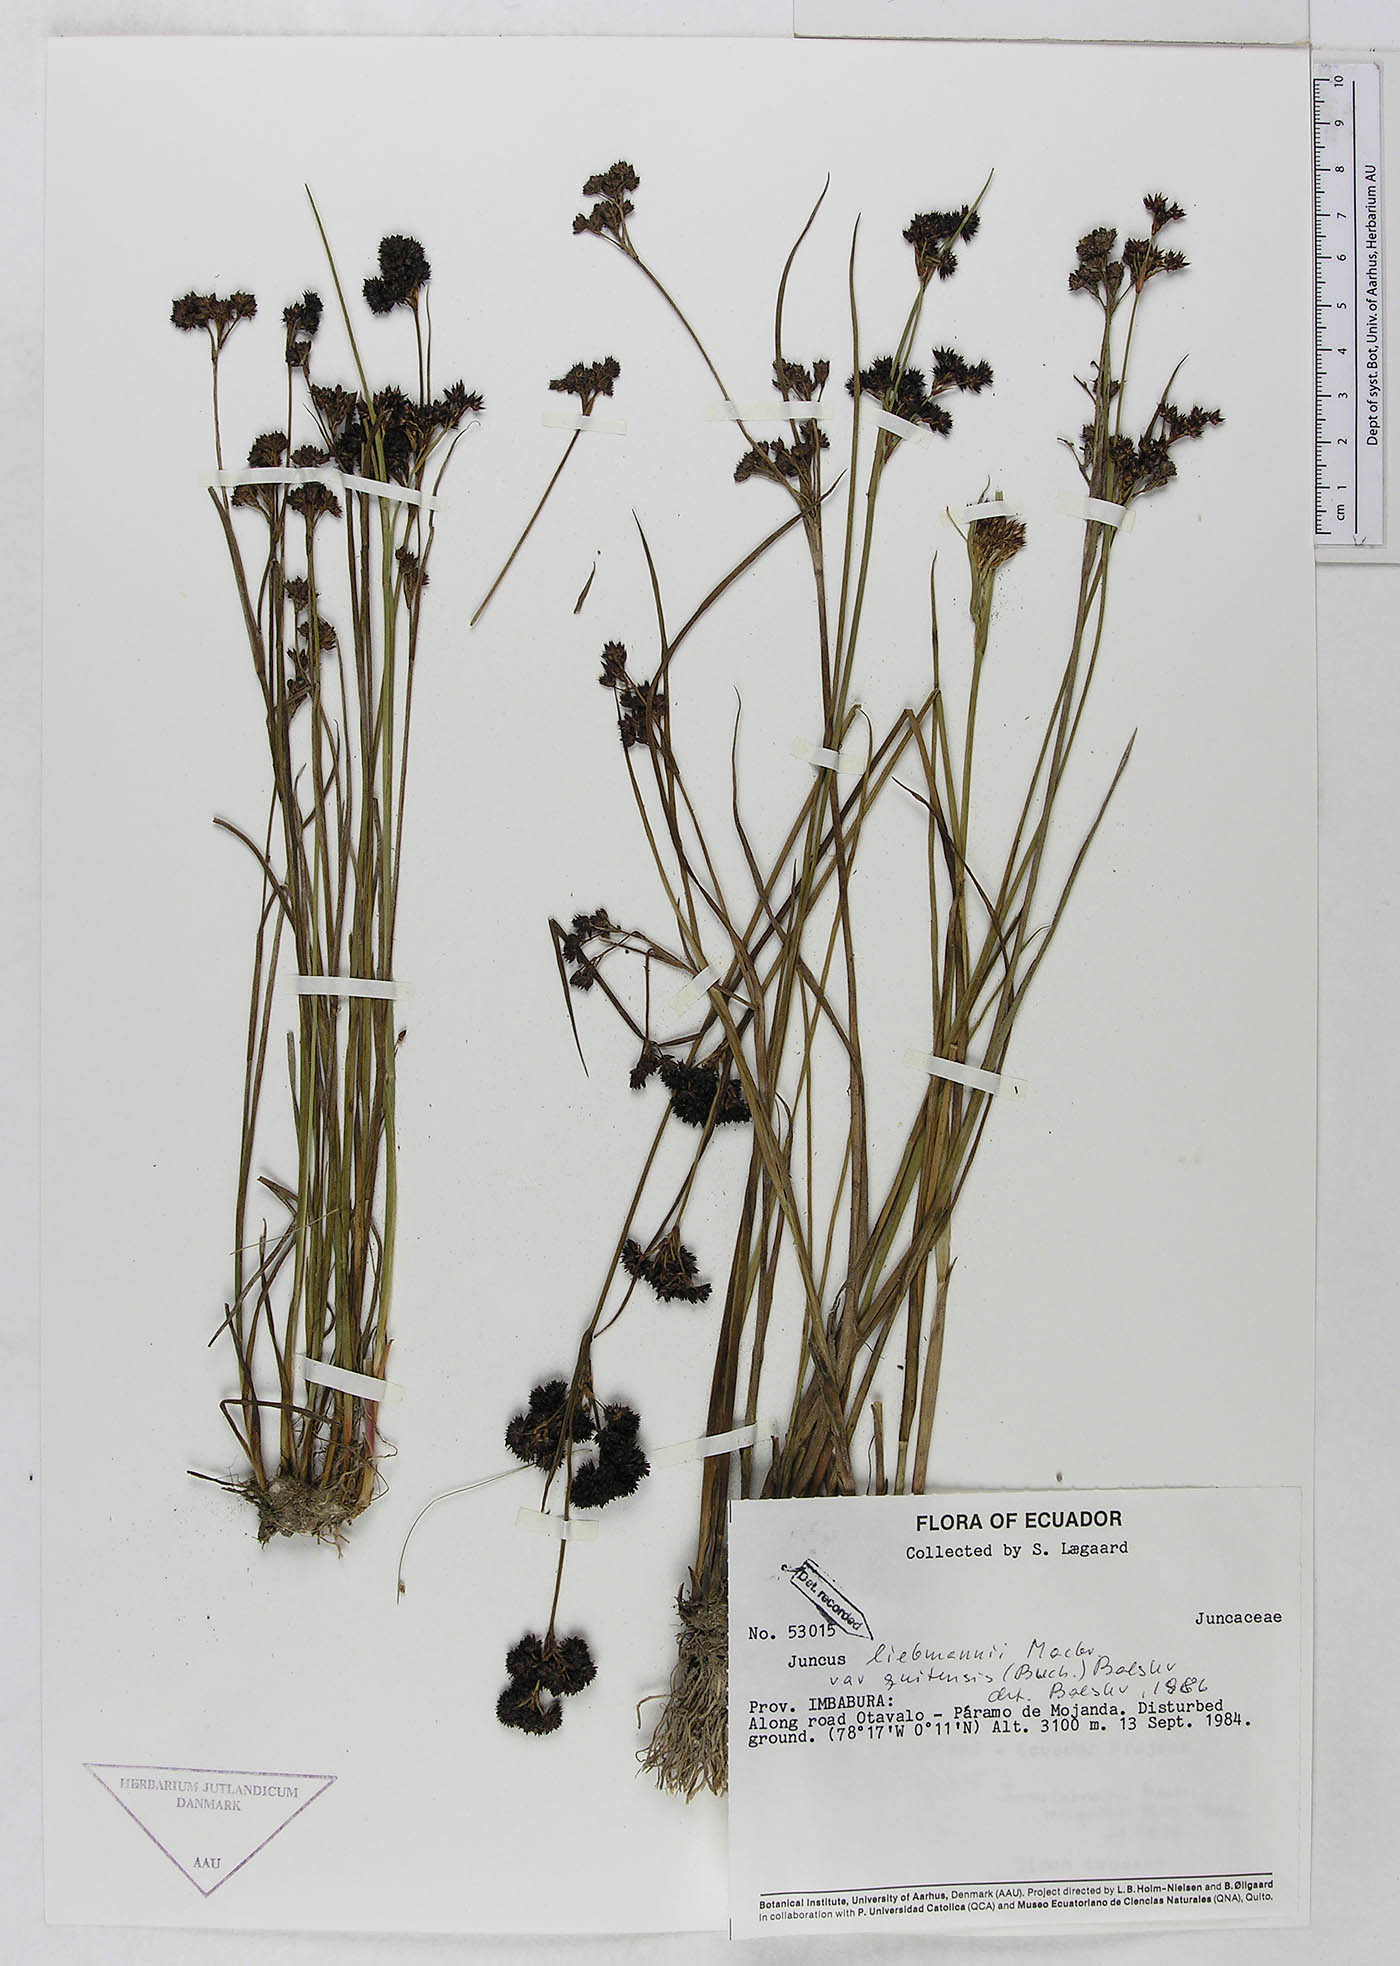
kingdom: Plantae
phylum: Tracheophyta
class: Liliopsida
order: Poales
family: Juncaceae
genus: Juncus
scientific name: Juncus liebmannii
